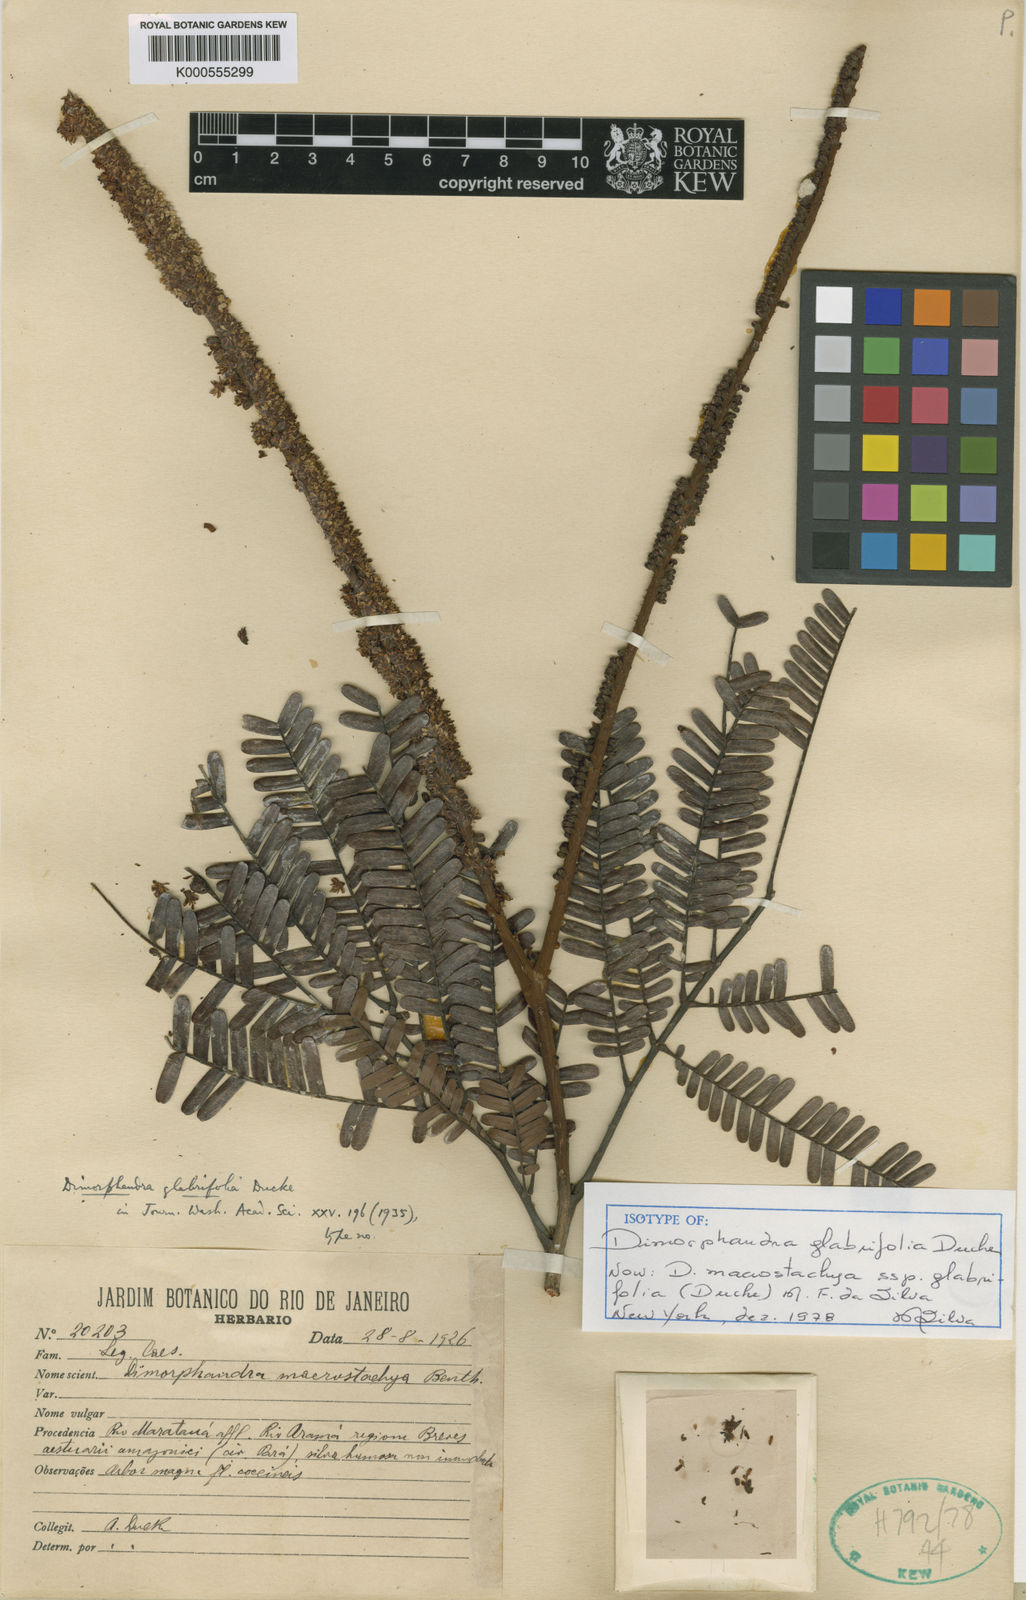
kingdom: Plantae
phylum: Tracheophyta
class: Magnoliopsida
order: Fabales
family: Fabaceae
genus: Dimorphandra
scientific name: Dimorphandra macrostachya
